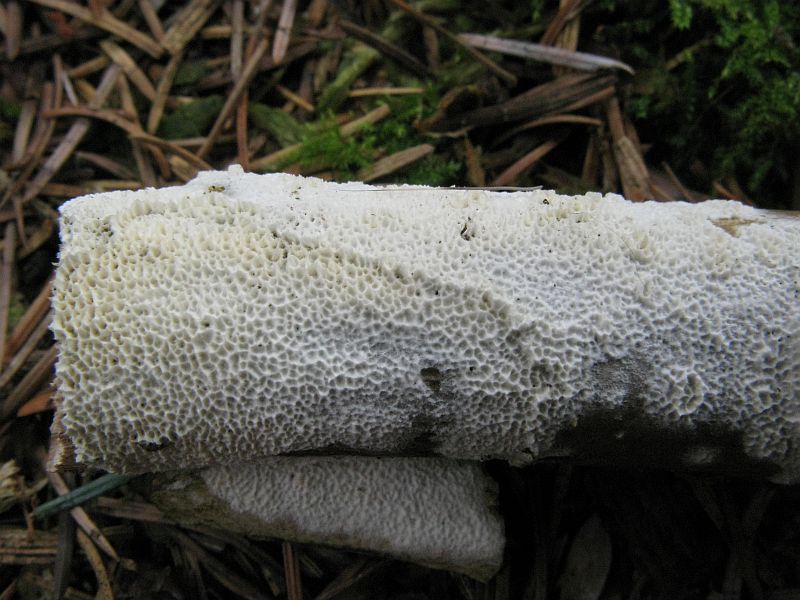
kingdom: Fungi
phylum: Basidiomycota
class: Agaricomycetes
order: Hymenochaetales
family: Schizoporaceae
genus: Schizopora
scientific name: Schizopora paradoxa
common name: hvid tandsvamp
